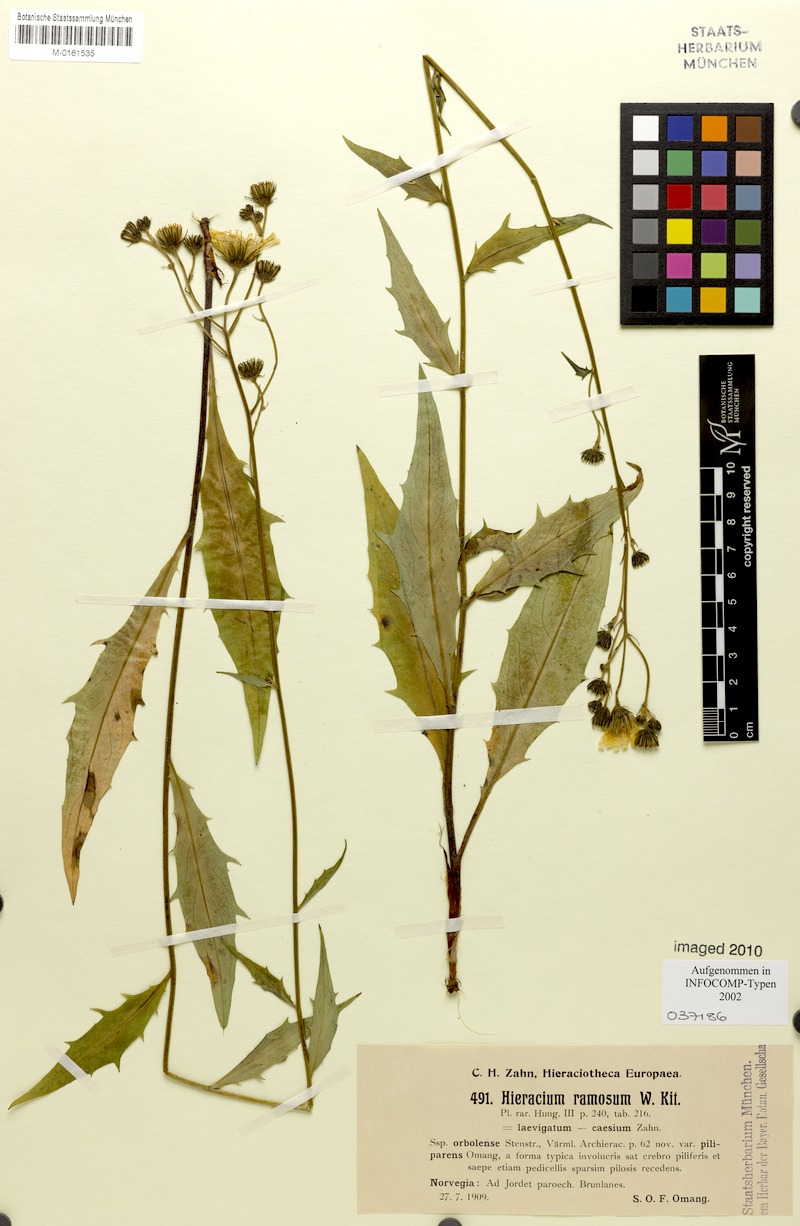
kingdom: Plantae
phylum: Tracheophyta
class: Magnoliopsida
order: Asterales
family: Asteraceae
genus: Hieracium
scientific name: Hieracium ramosum
